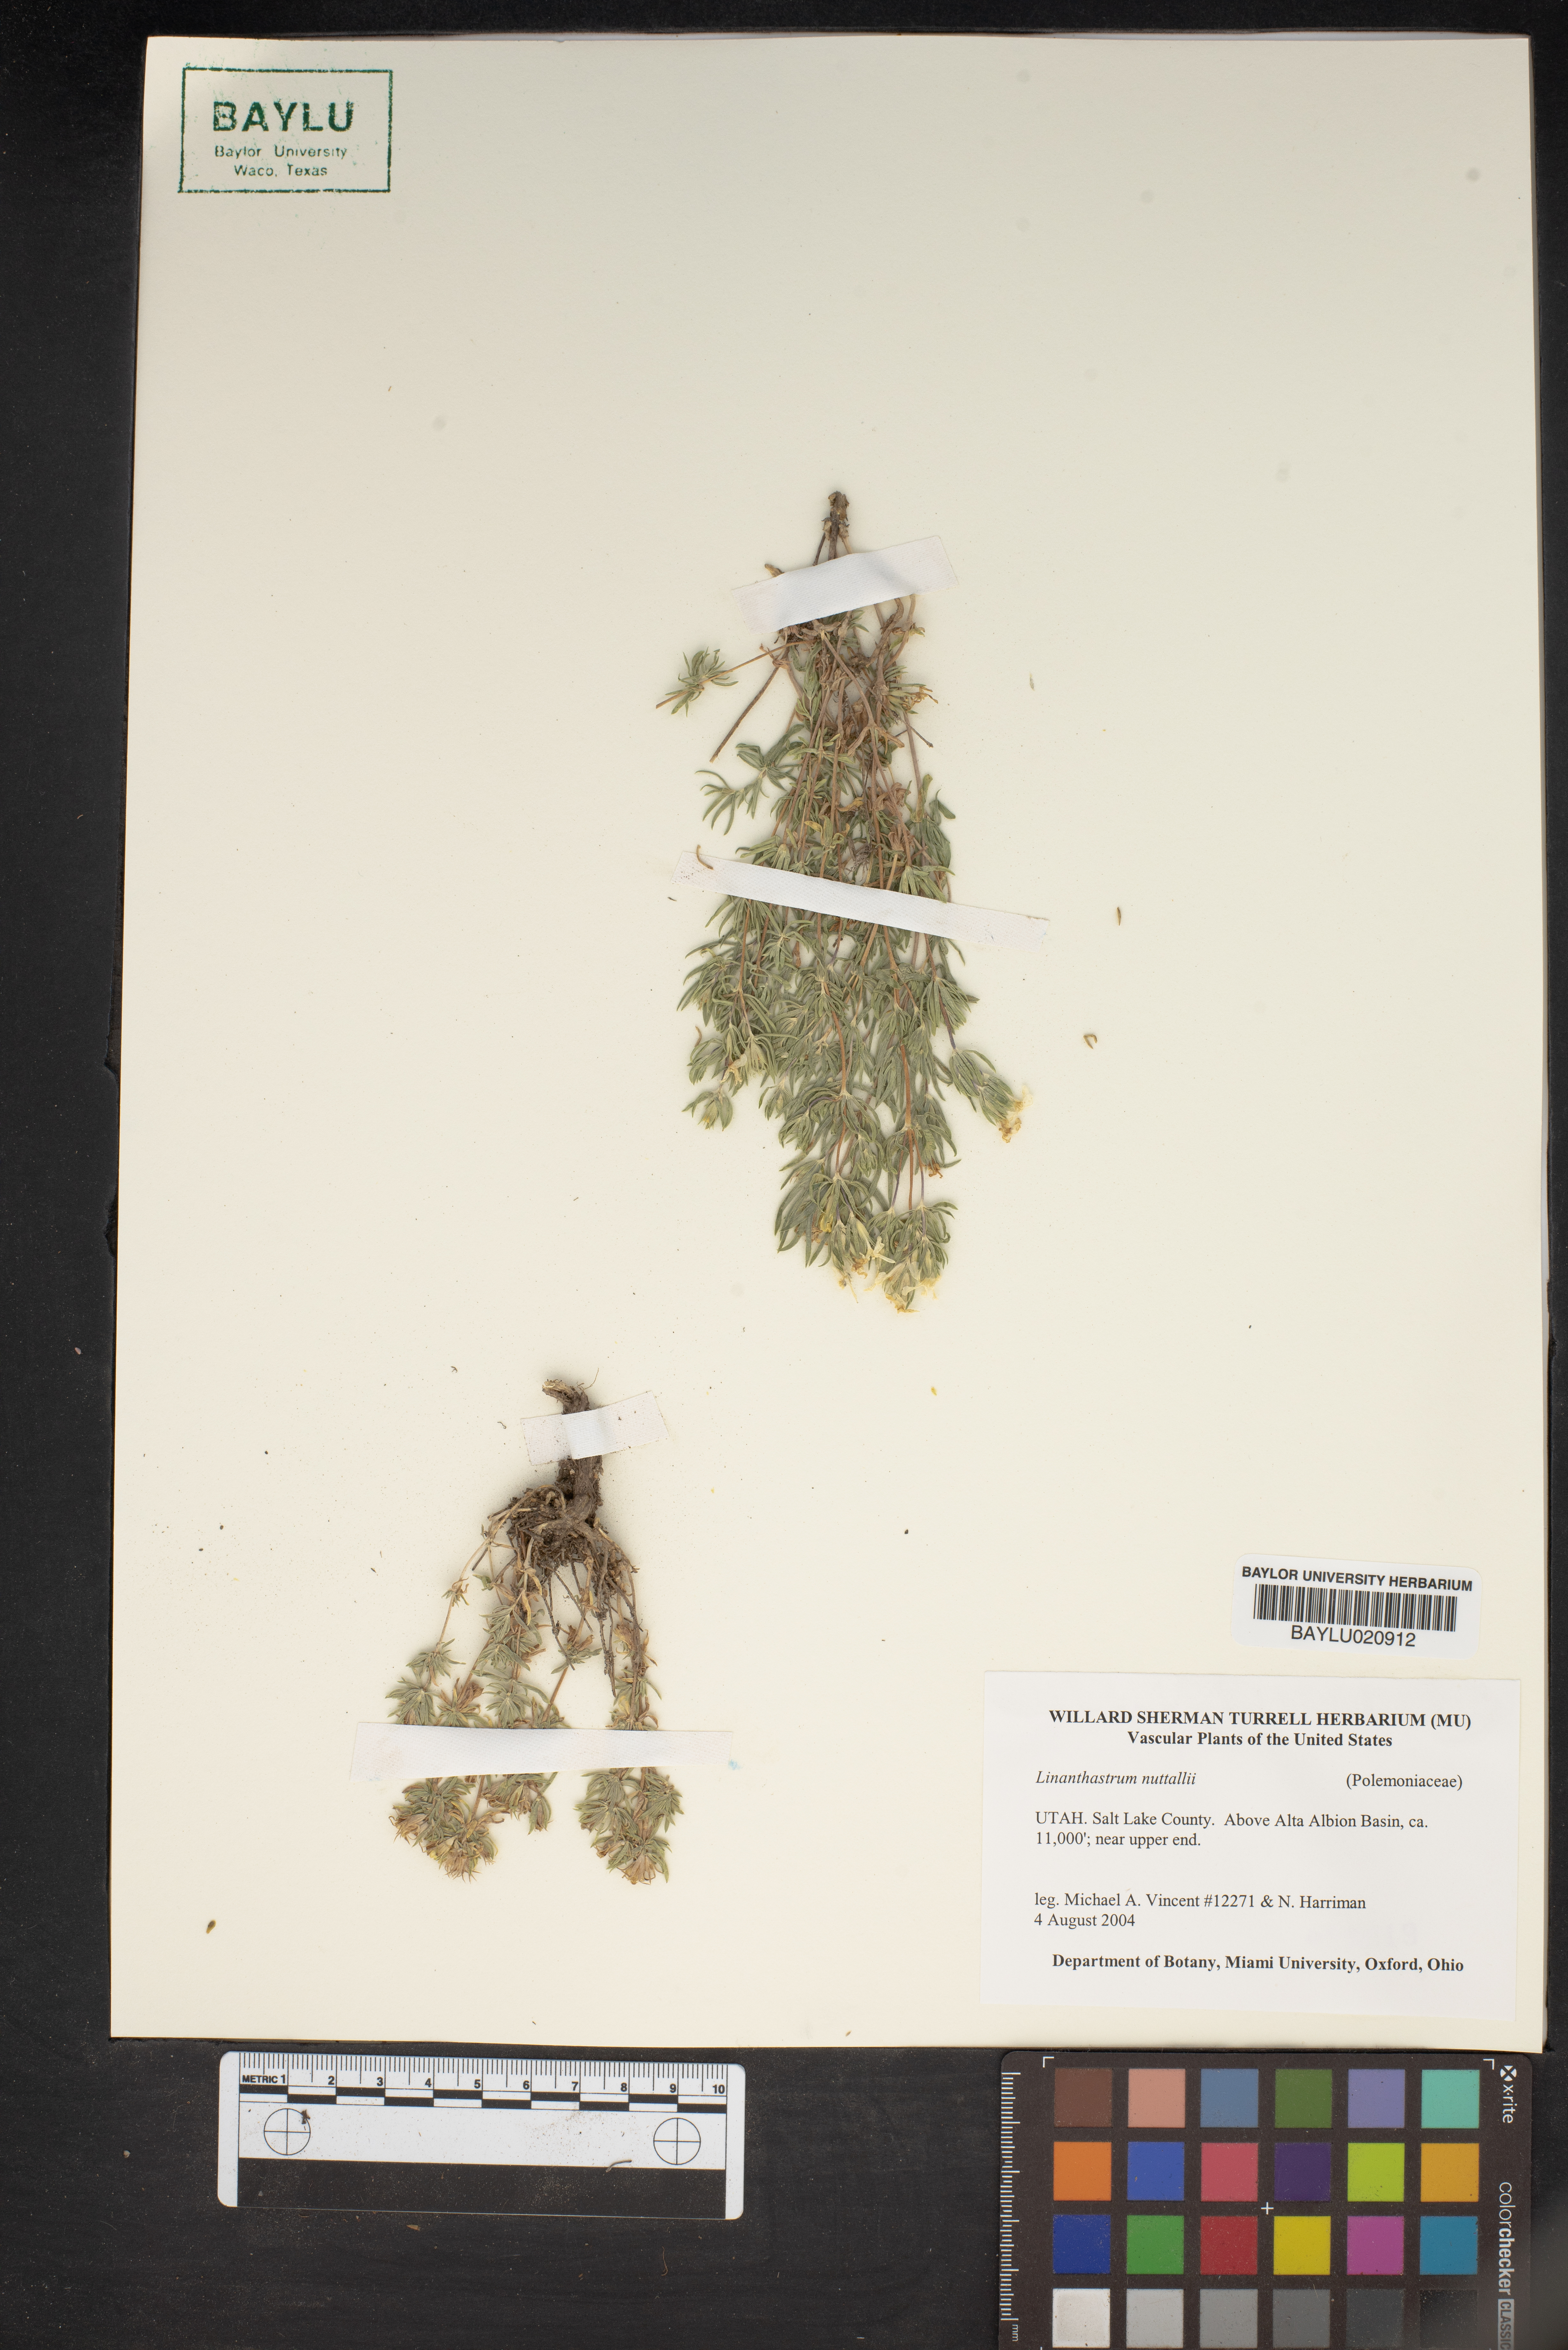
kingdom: Plantae
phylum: Tracheophyta
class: Magnoliopsida
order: Ericales
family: Polemoniaceae
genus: Leptosiphon
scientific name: Leptosiphon nuttallii
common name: Nuttall's linanthus
